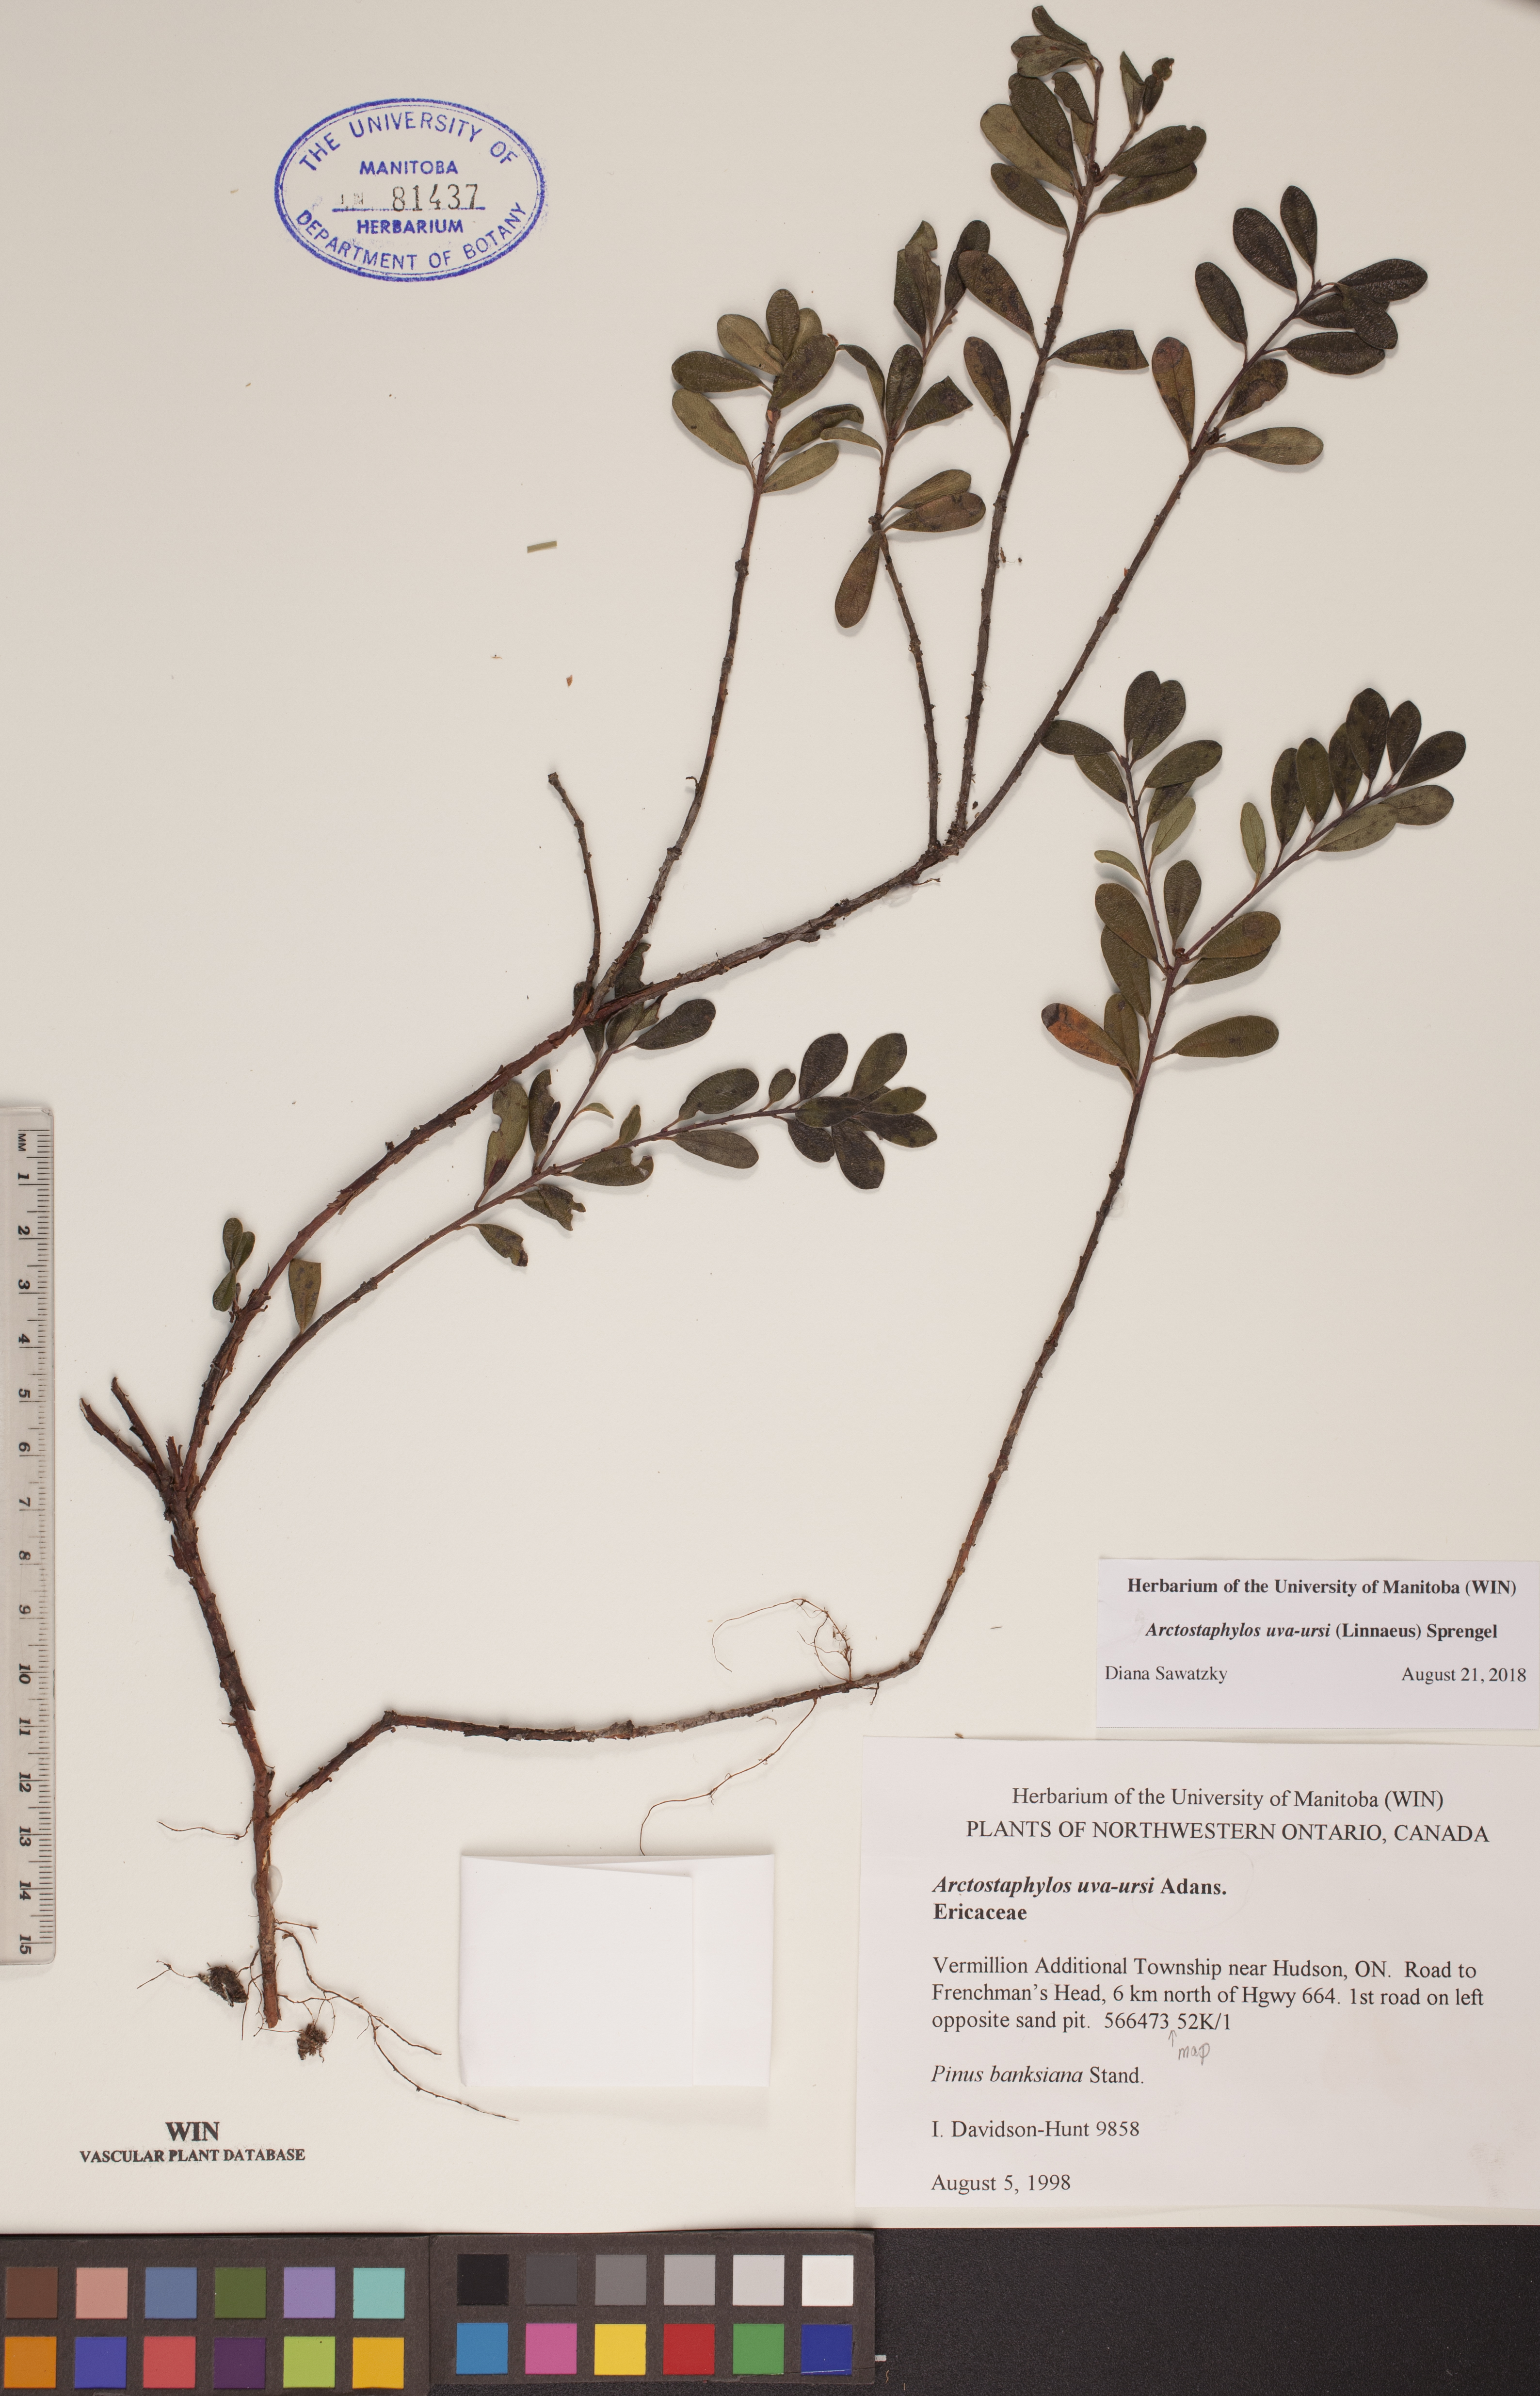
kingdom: Plantae
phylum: Tracheophyta
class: Magnoliopsida
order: Ericales
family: Ericaceae
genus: Arctostaphylos
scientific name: Arctostaphylos uva-ursi
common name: Bearberry
